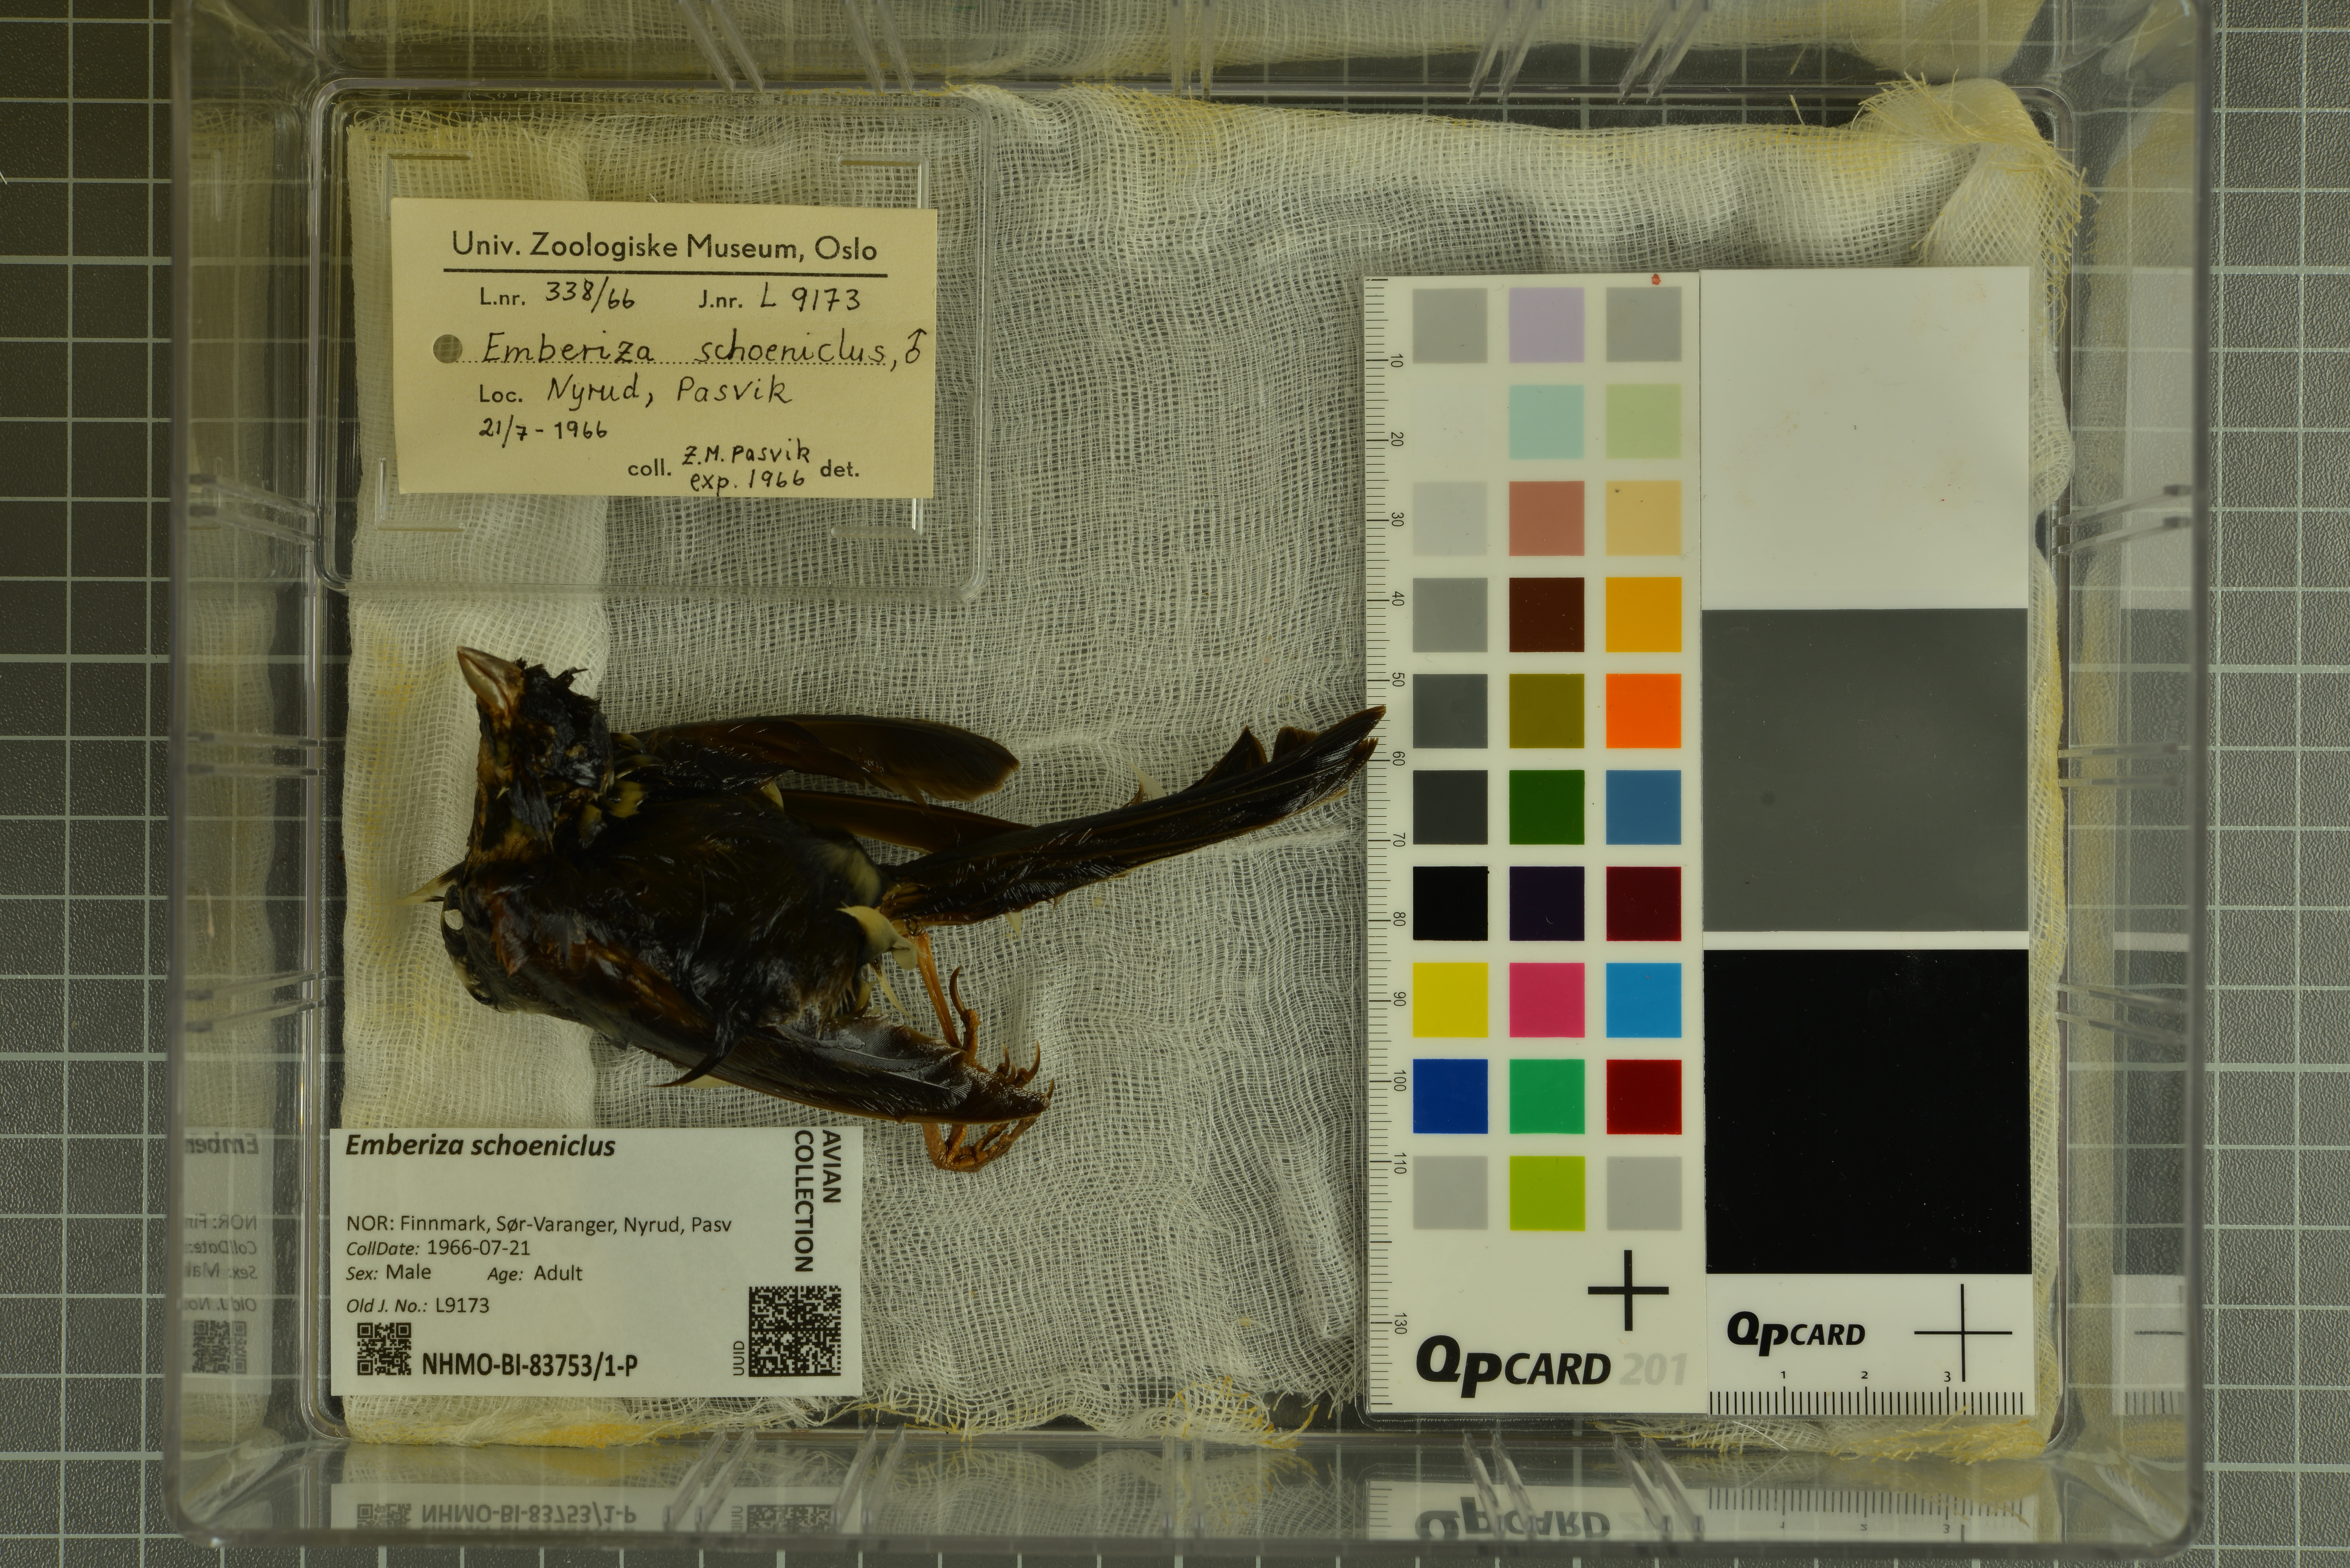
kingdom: Animalia
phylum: Chordata
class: Aves
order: Passeriformes
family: Emberizidae
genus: Emberiza
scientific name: Emberiza schoeniclus
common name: Reed bunting
